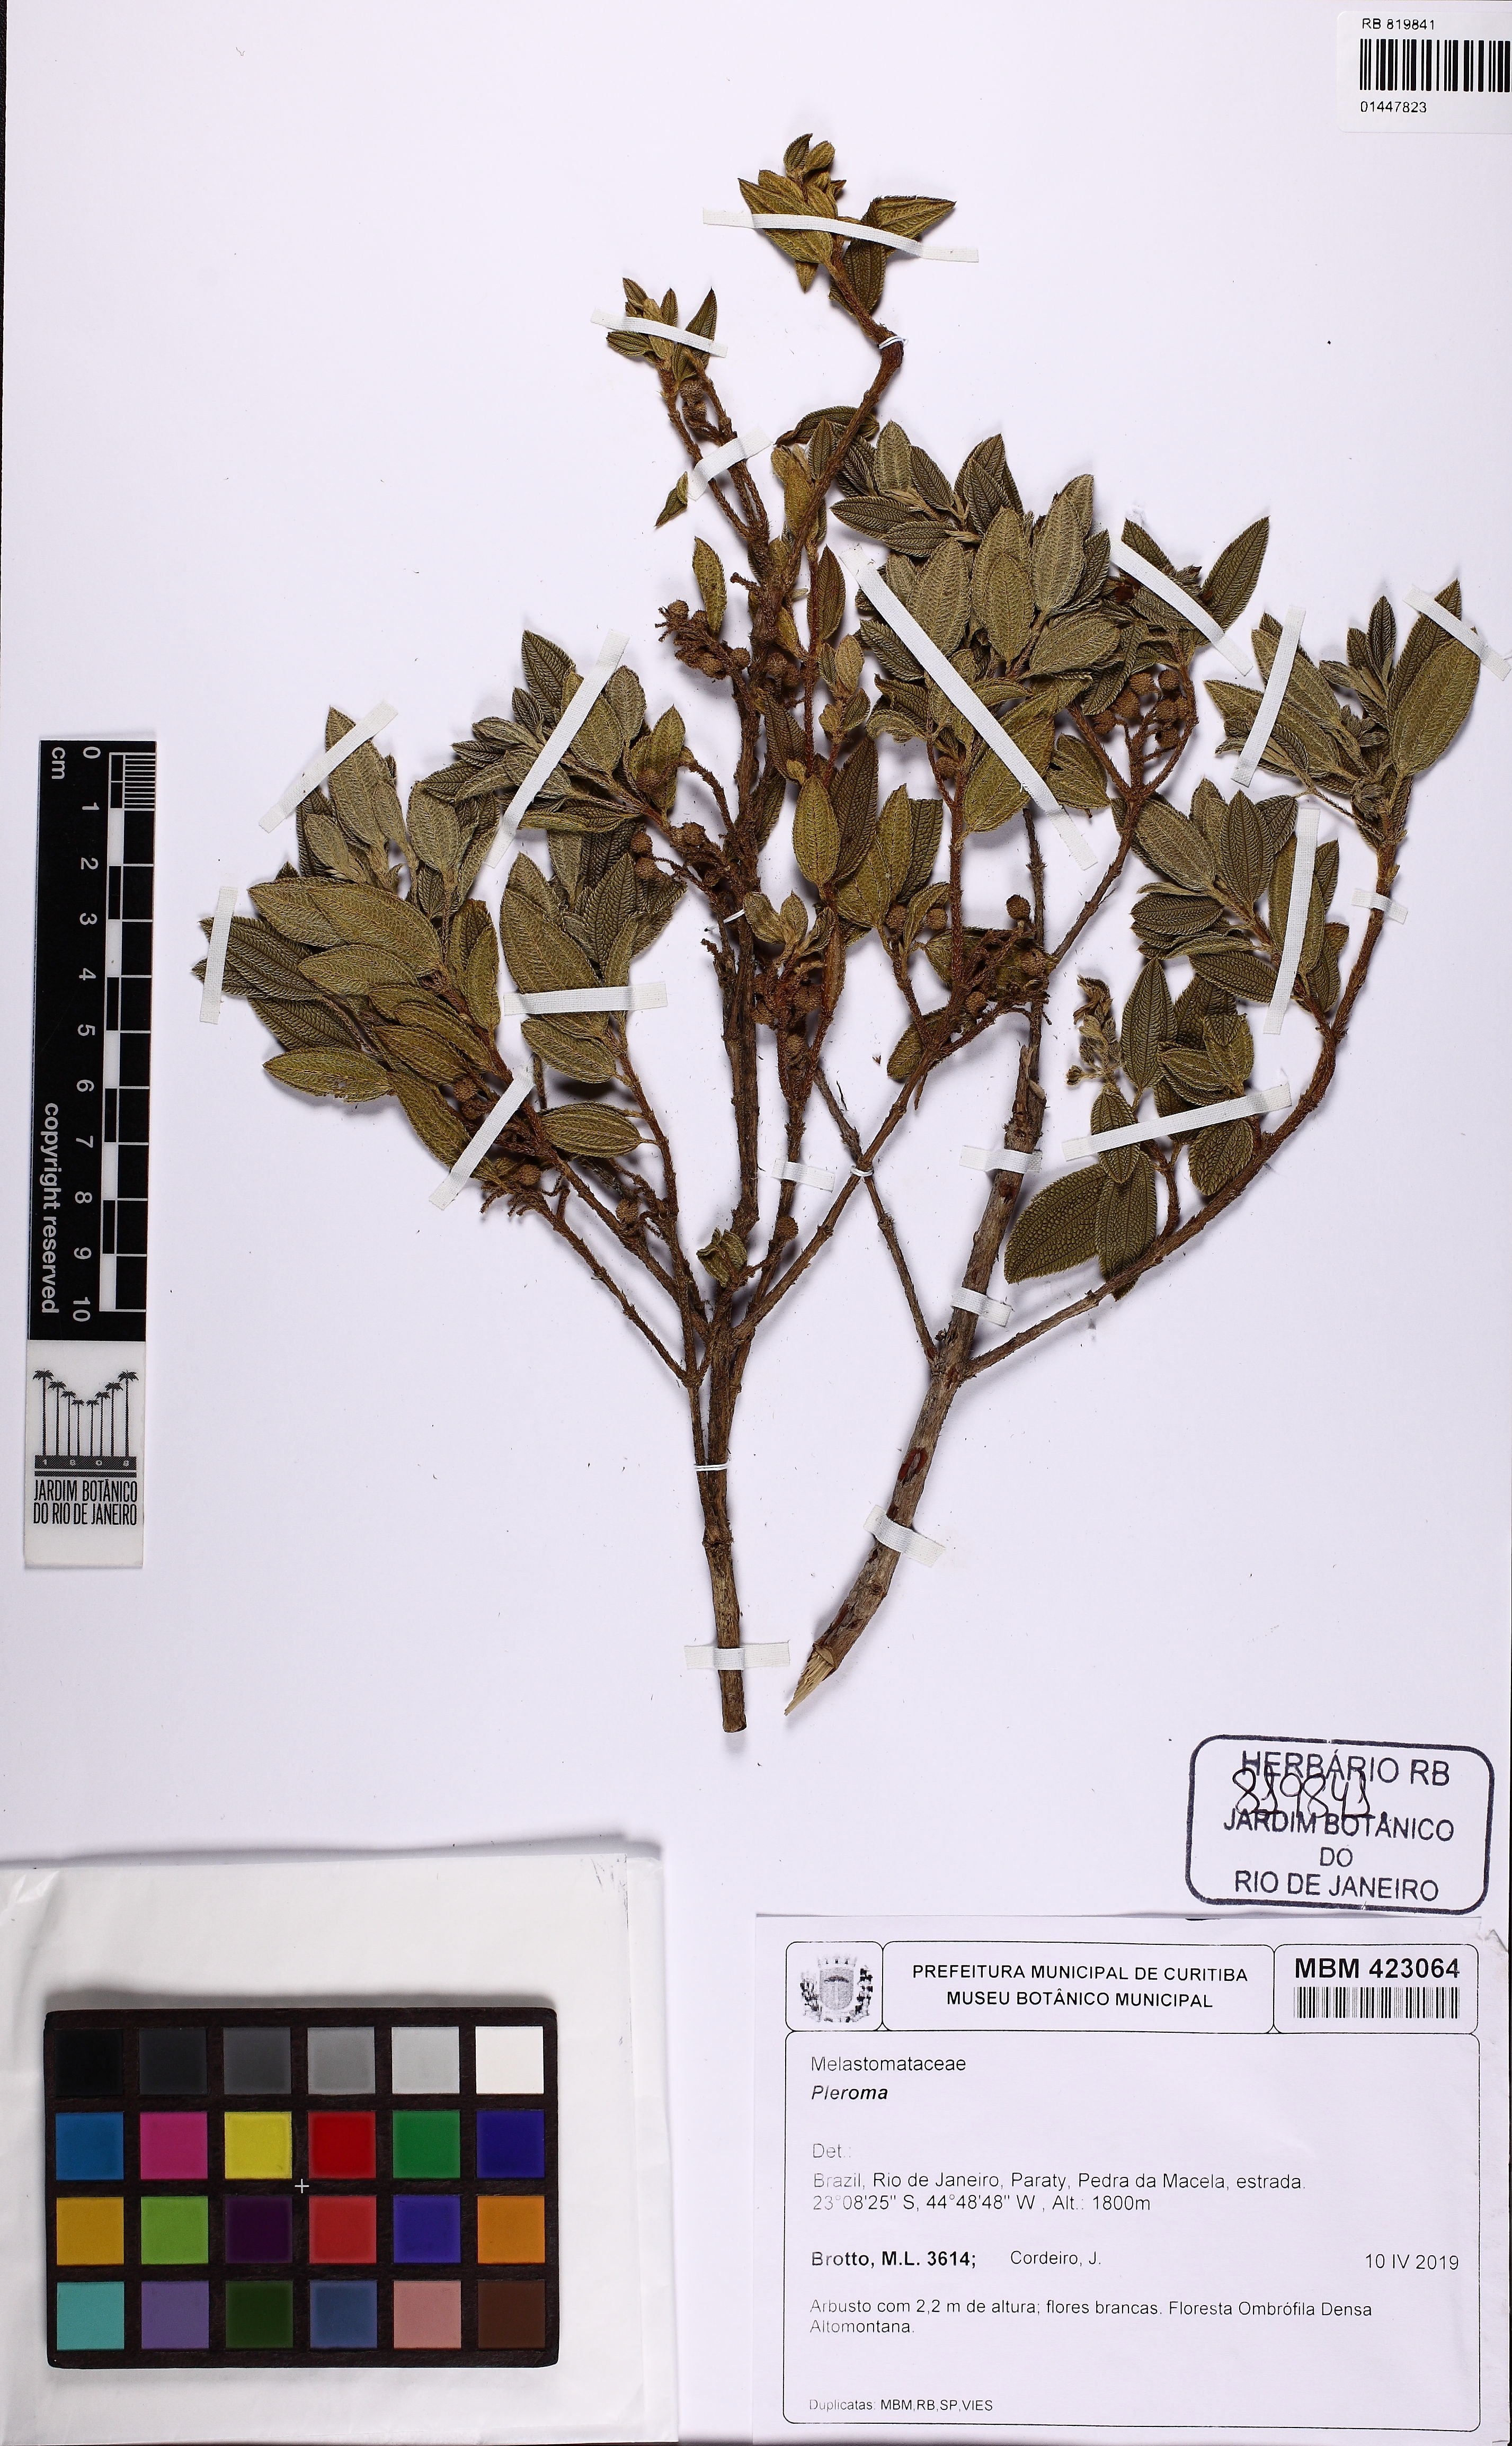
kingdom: Plantae
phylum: Tracheophyta
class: Magnoliopsida
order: Myrtales
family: Melastomataceae
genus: Pleroma
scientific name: Pleroma
